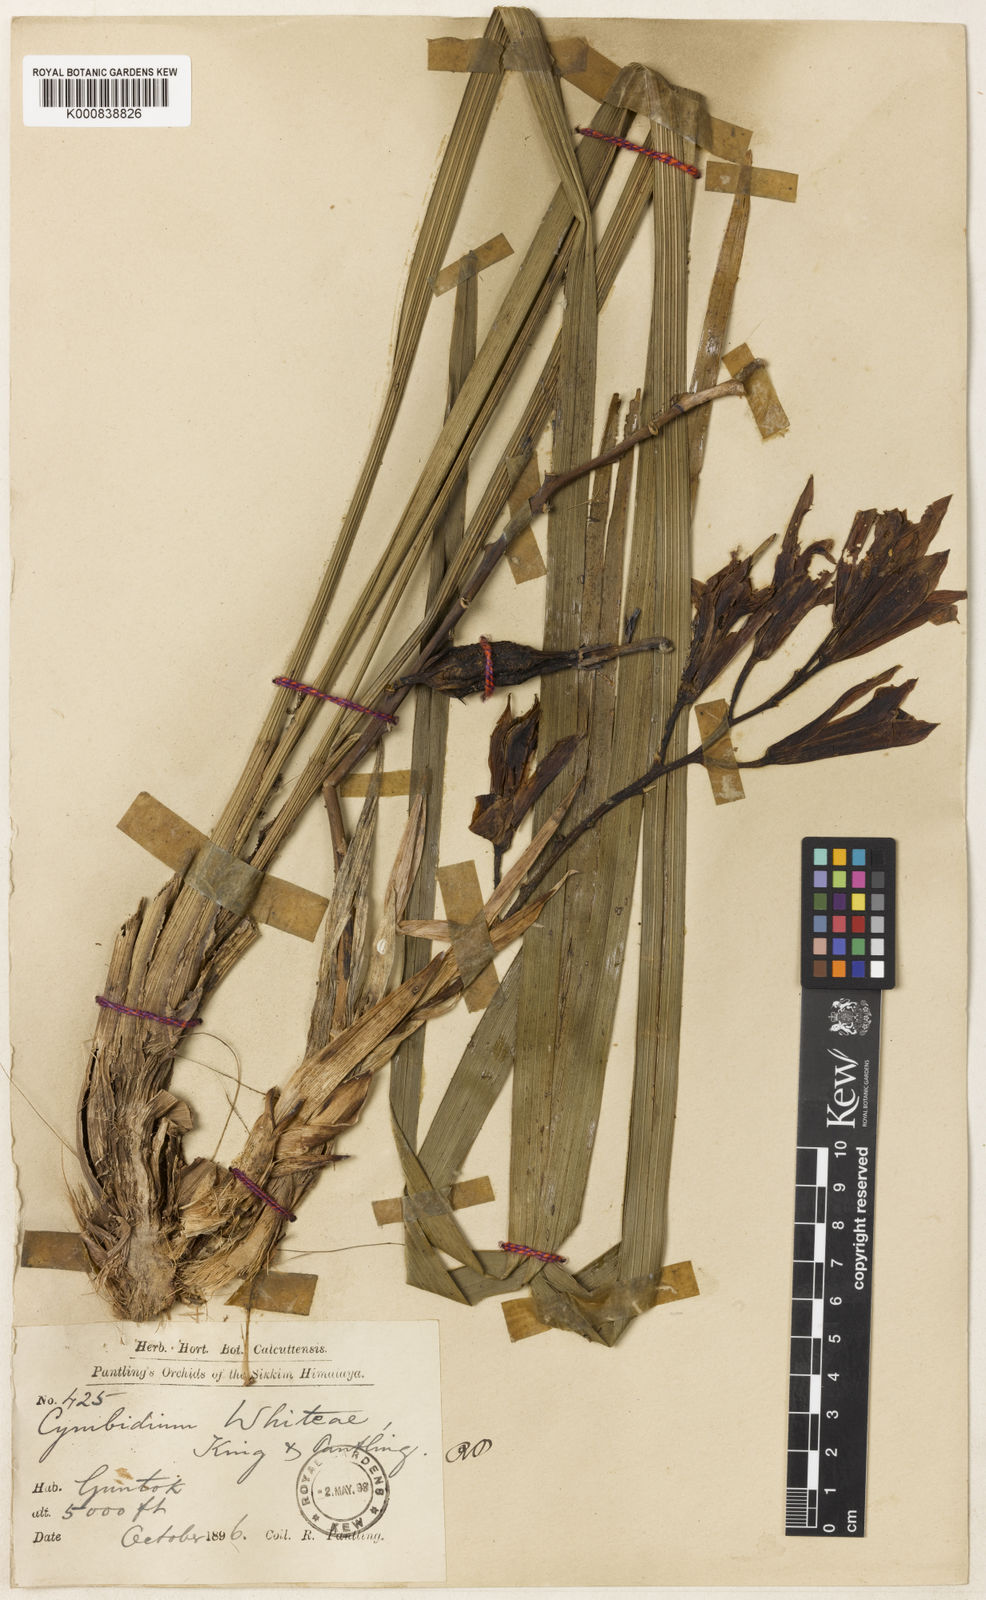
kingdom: Plantae
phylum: Tracheophyta
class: Liliopsida
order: Asparagales
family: Orchidaceae
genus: Cymbidium
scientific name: Cymbidium whiteae
